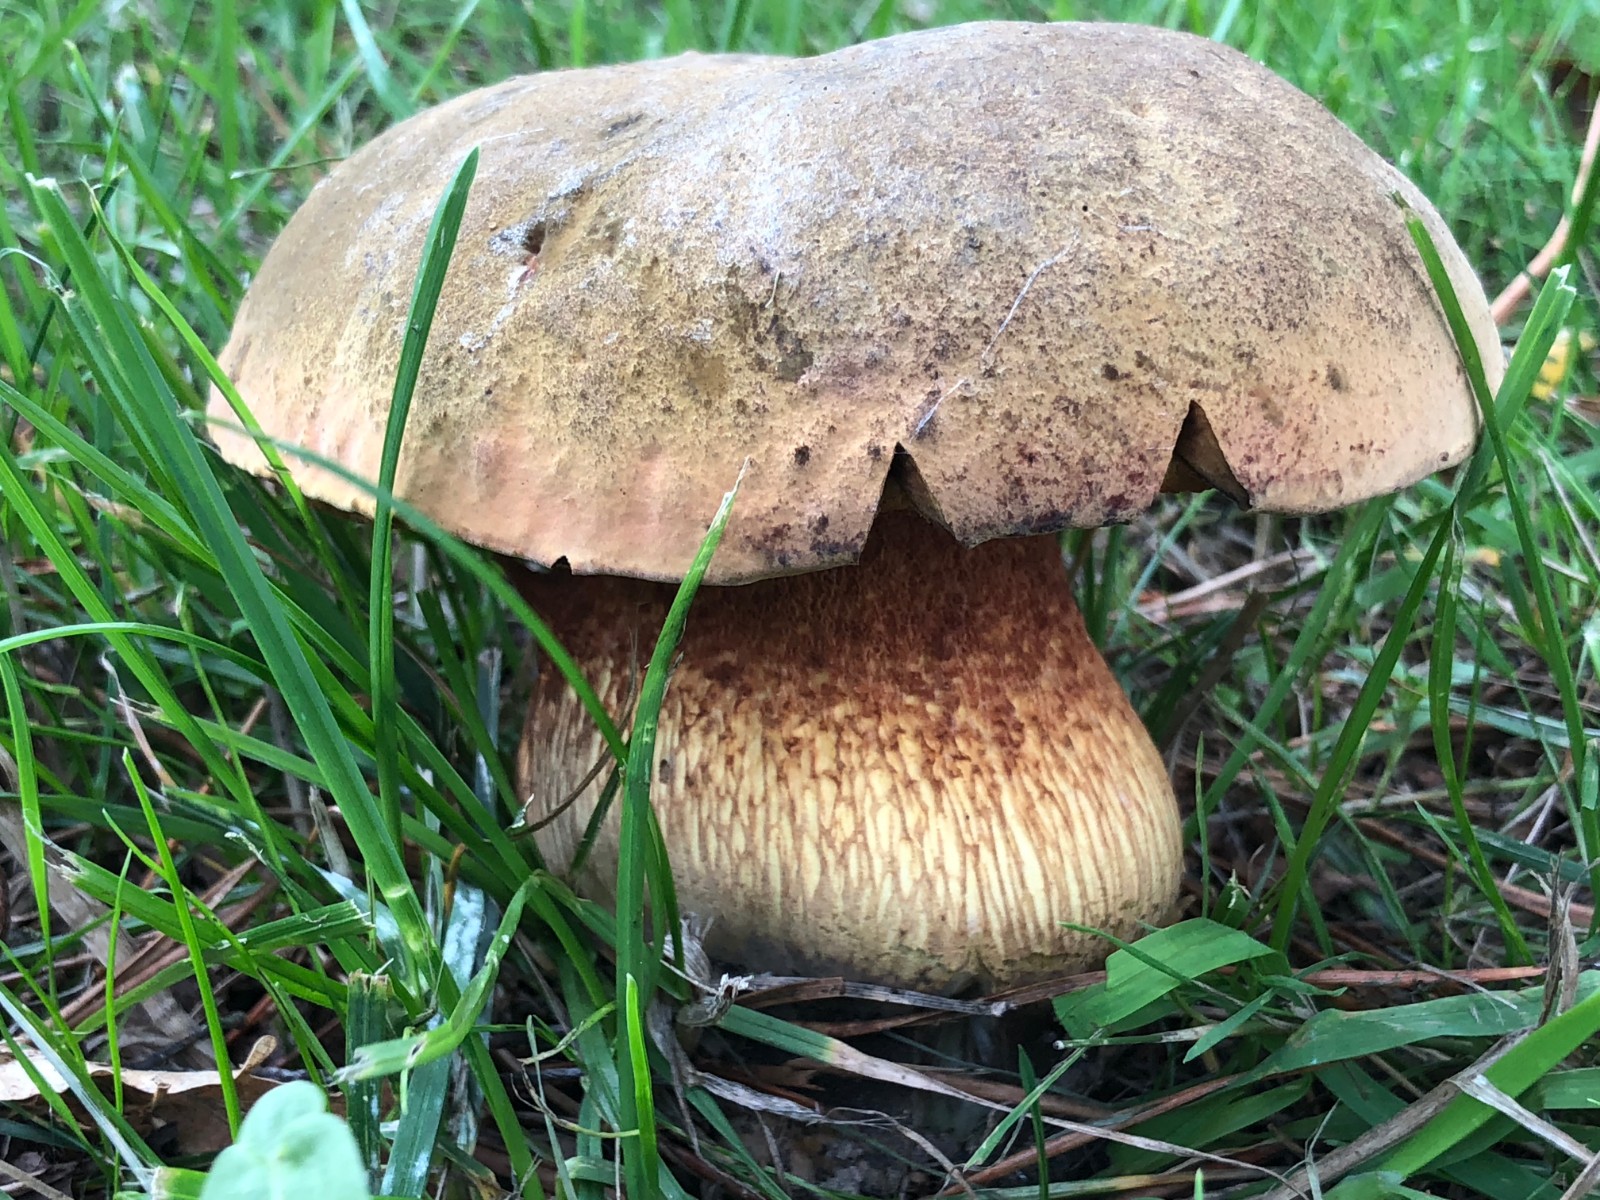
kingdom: Fungi
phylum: Basidiomycota
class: Agaricomycetes
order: Boletales
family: Boletaceae
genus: Suillellus
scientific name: Suillellus luridus
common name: netstokket indigorørhat
